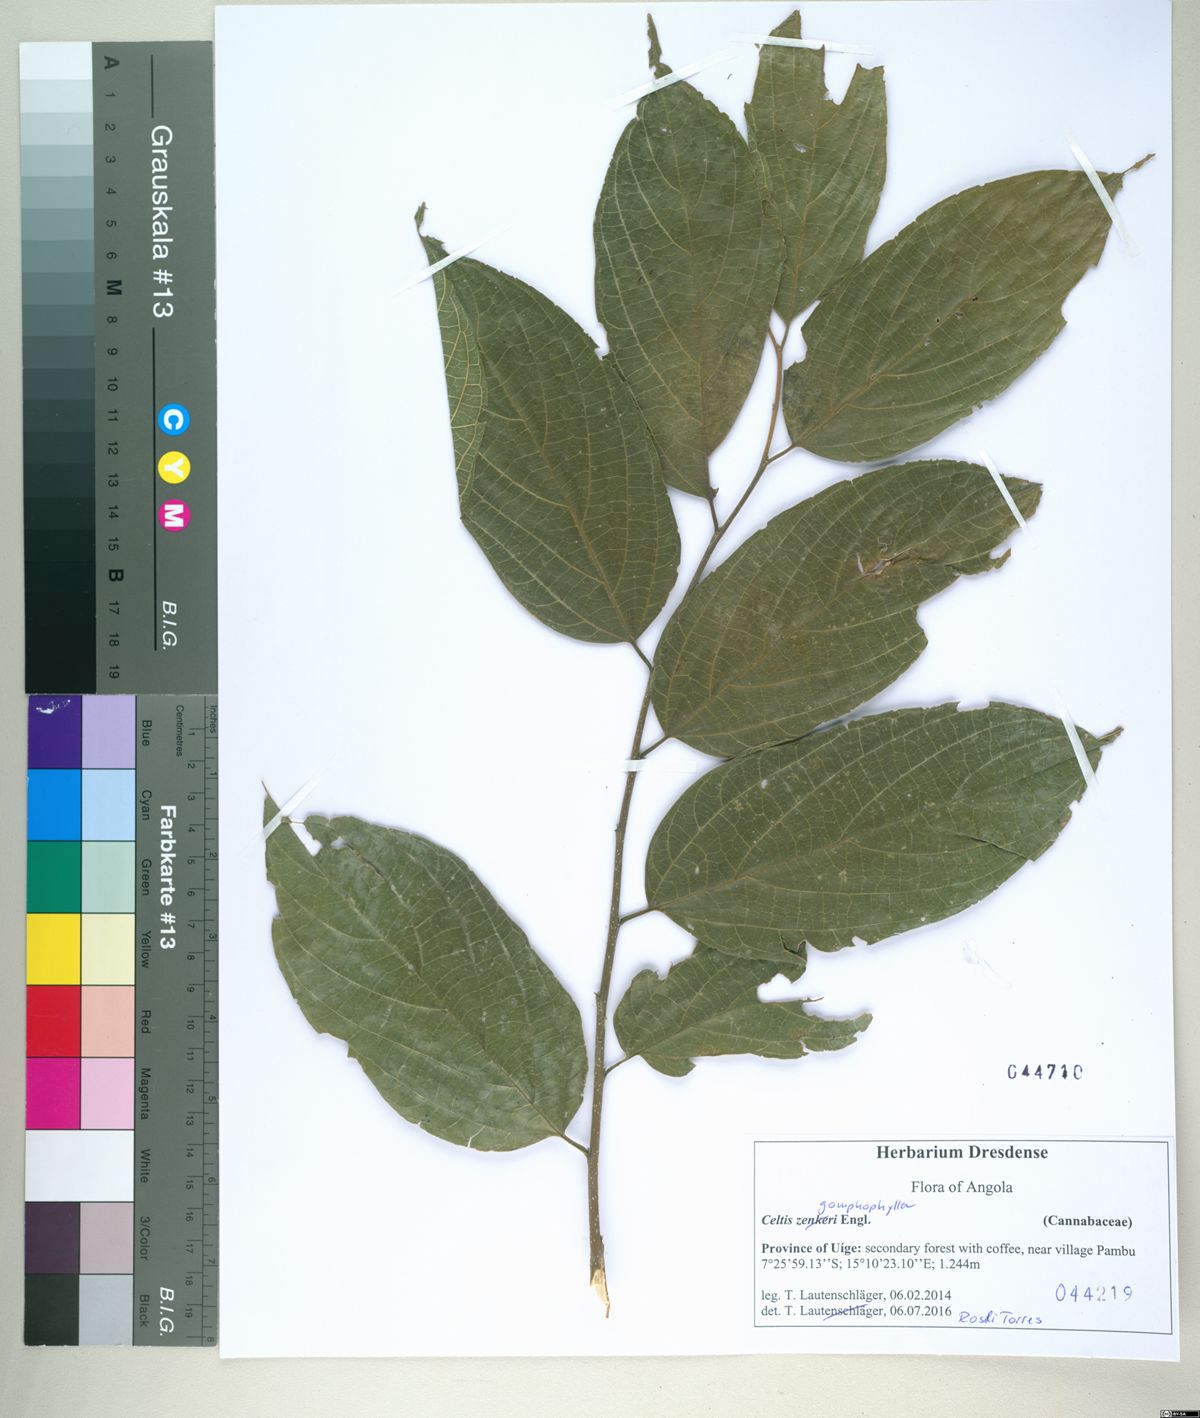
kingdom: Plantae
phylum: Tracheophyta
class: Magnoliopsida
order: Rosales
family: Cannabaceae
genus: Celtis
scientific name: Celtis gomphophylla
